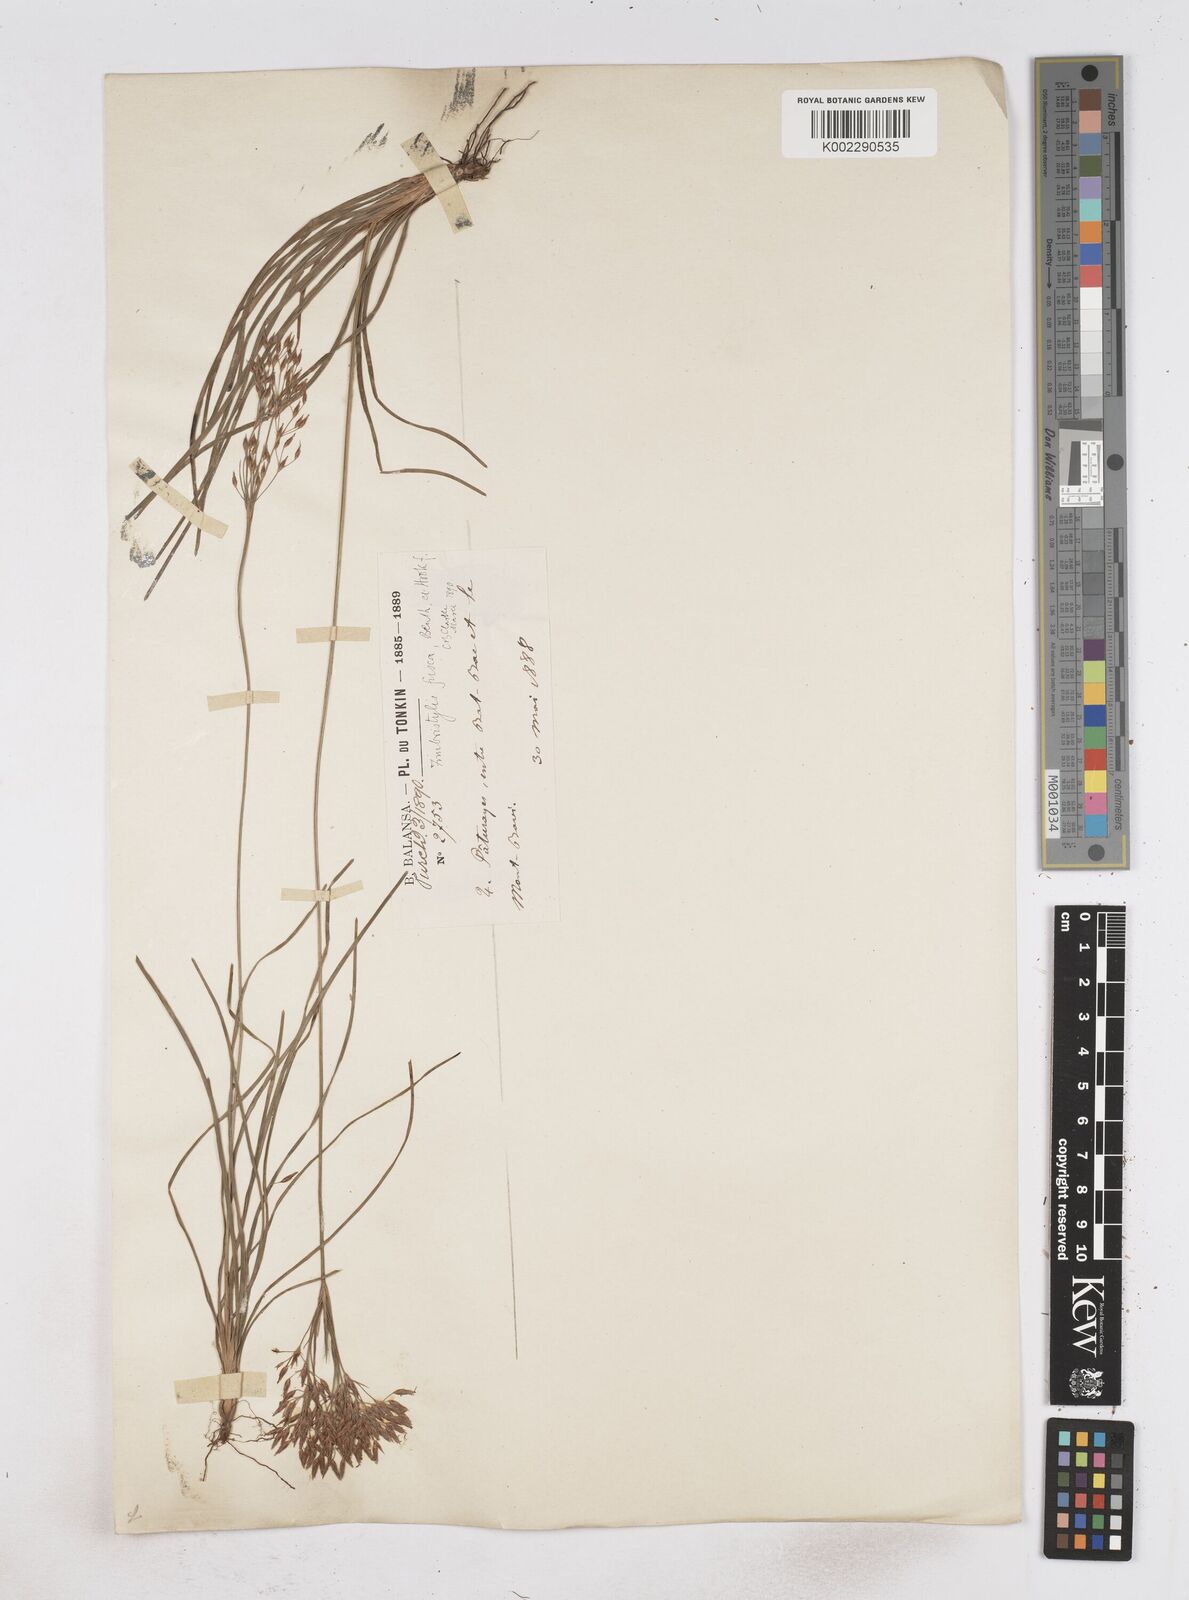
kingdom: Plantae
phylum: Tracheophyta
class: Liliopsida
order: Poales
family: Cyperaceae
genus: Fimbristylis
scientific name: Fimbristylis fusca
